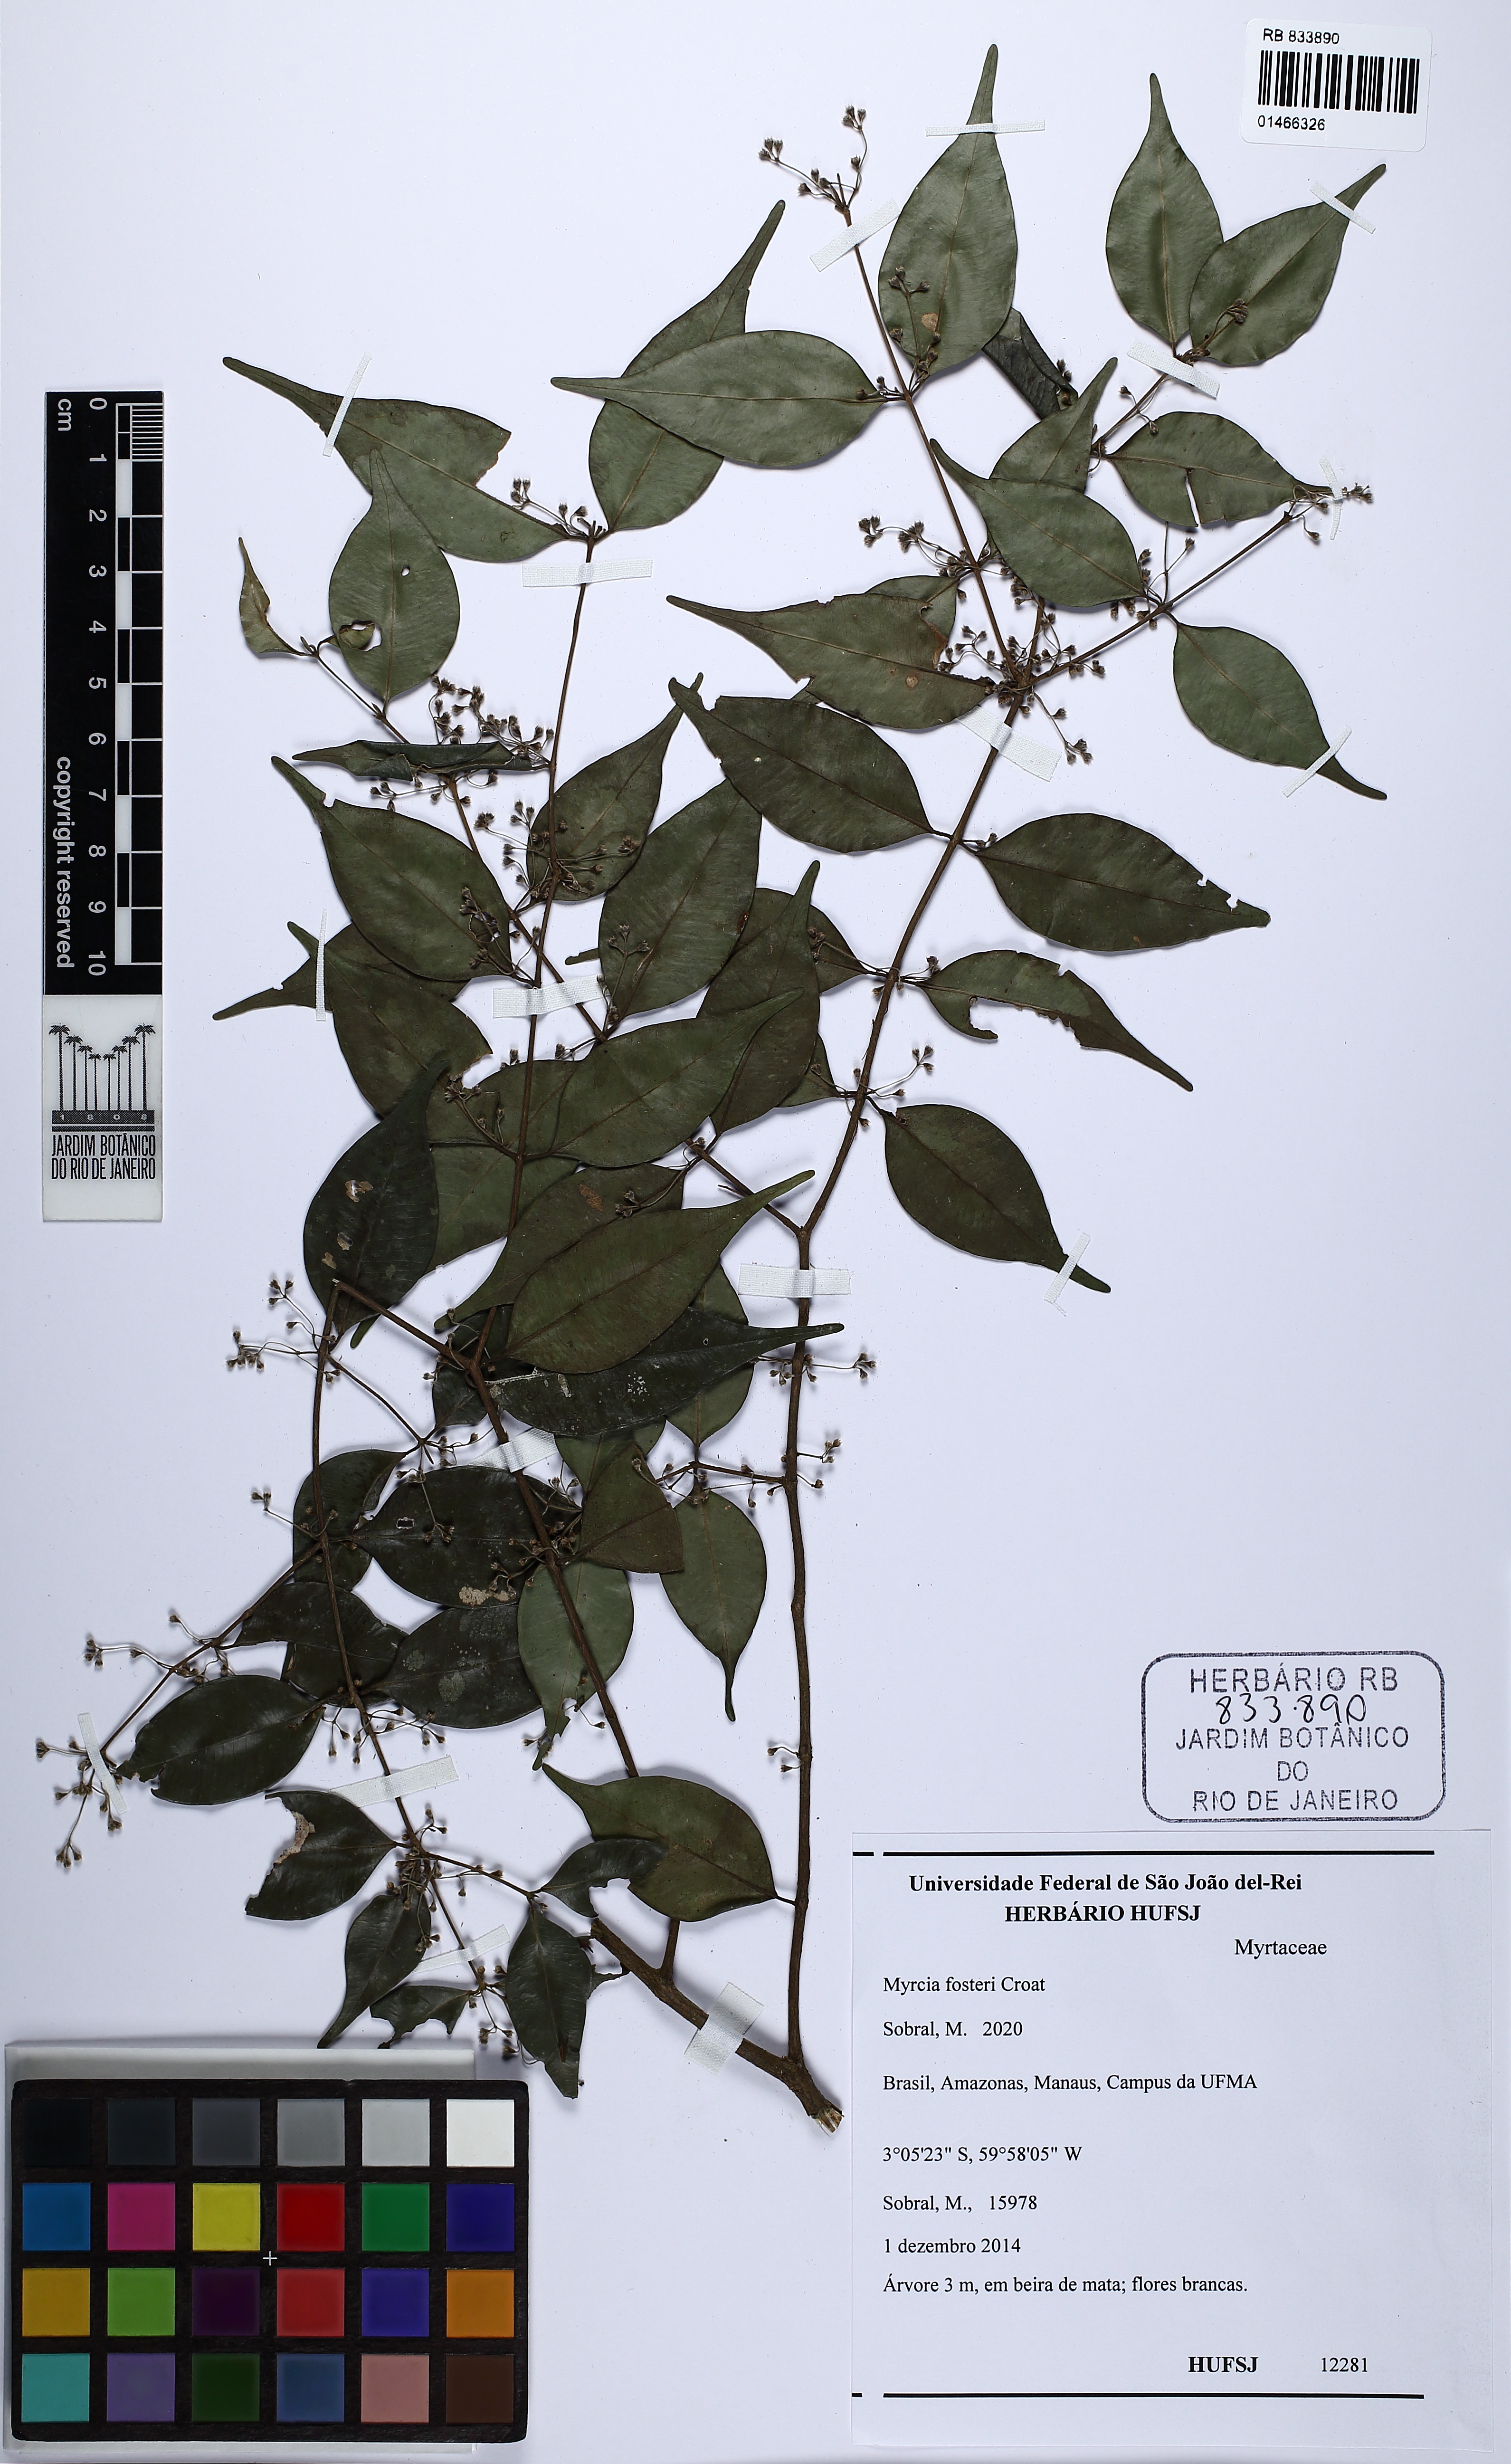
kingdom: Plantae
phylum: Tracheophyta
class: Magnoliopsida
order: Myrtales
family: Myrtaceae
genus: Myrcia
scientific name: Myrcia fosteri
